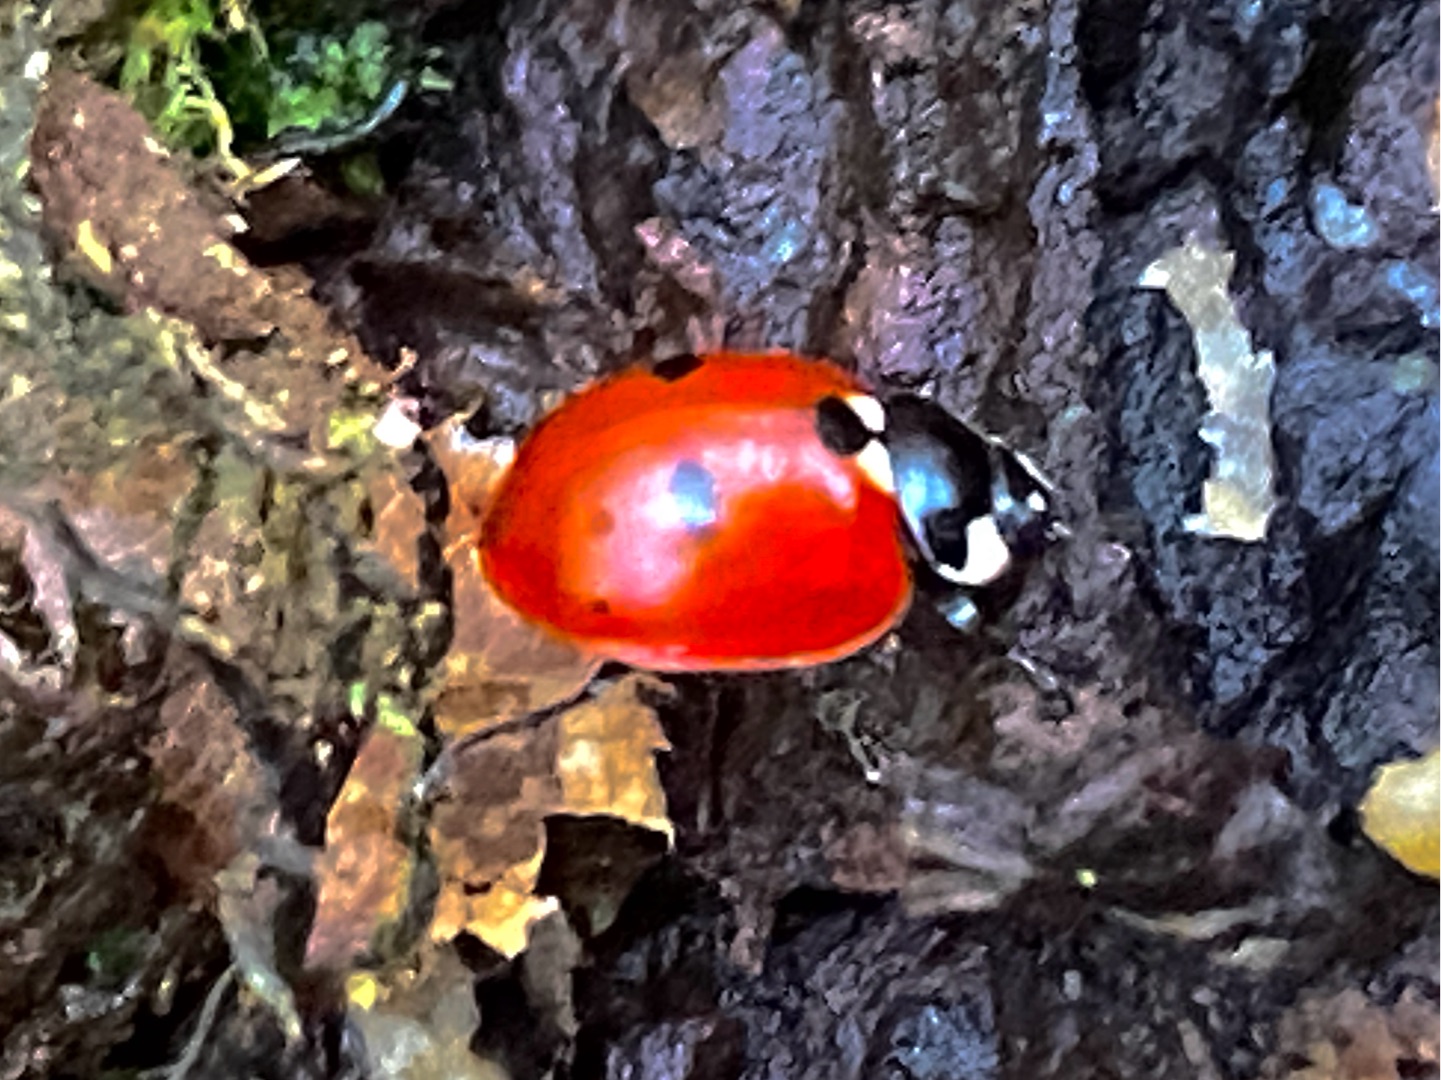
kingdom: Animalia
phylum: Arthropoda
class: Insecta
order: Coleoptera
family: Coccinellidae
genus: Coccinella
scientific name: Coccinella quinquepunctata
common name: Femplettet mariehøne
